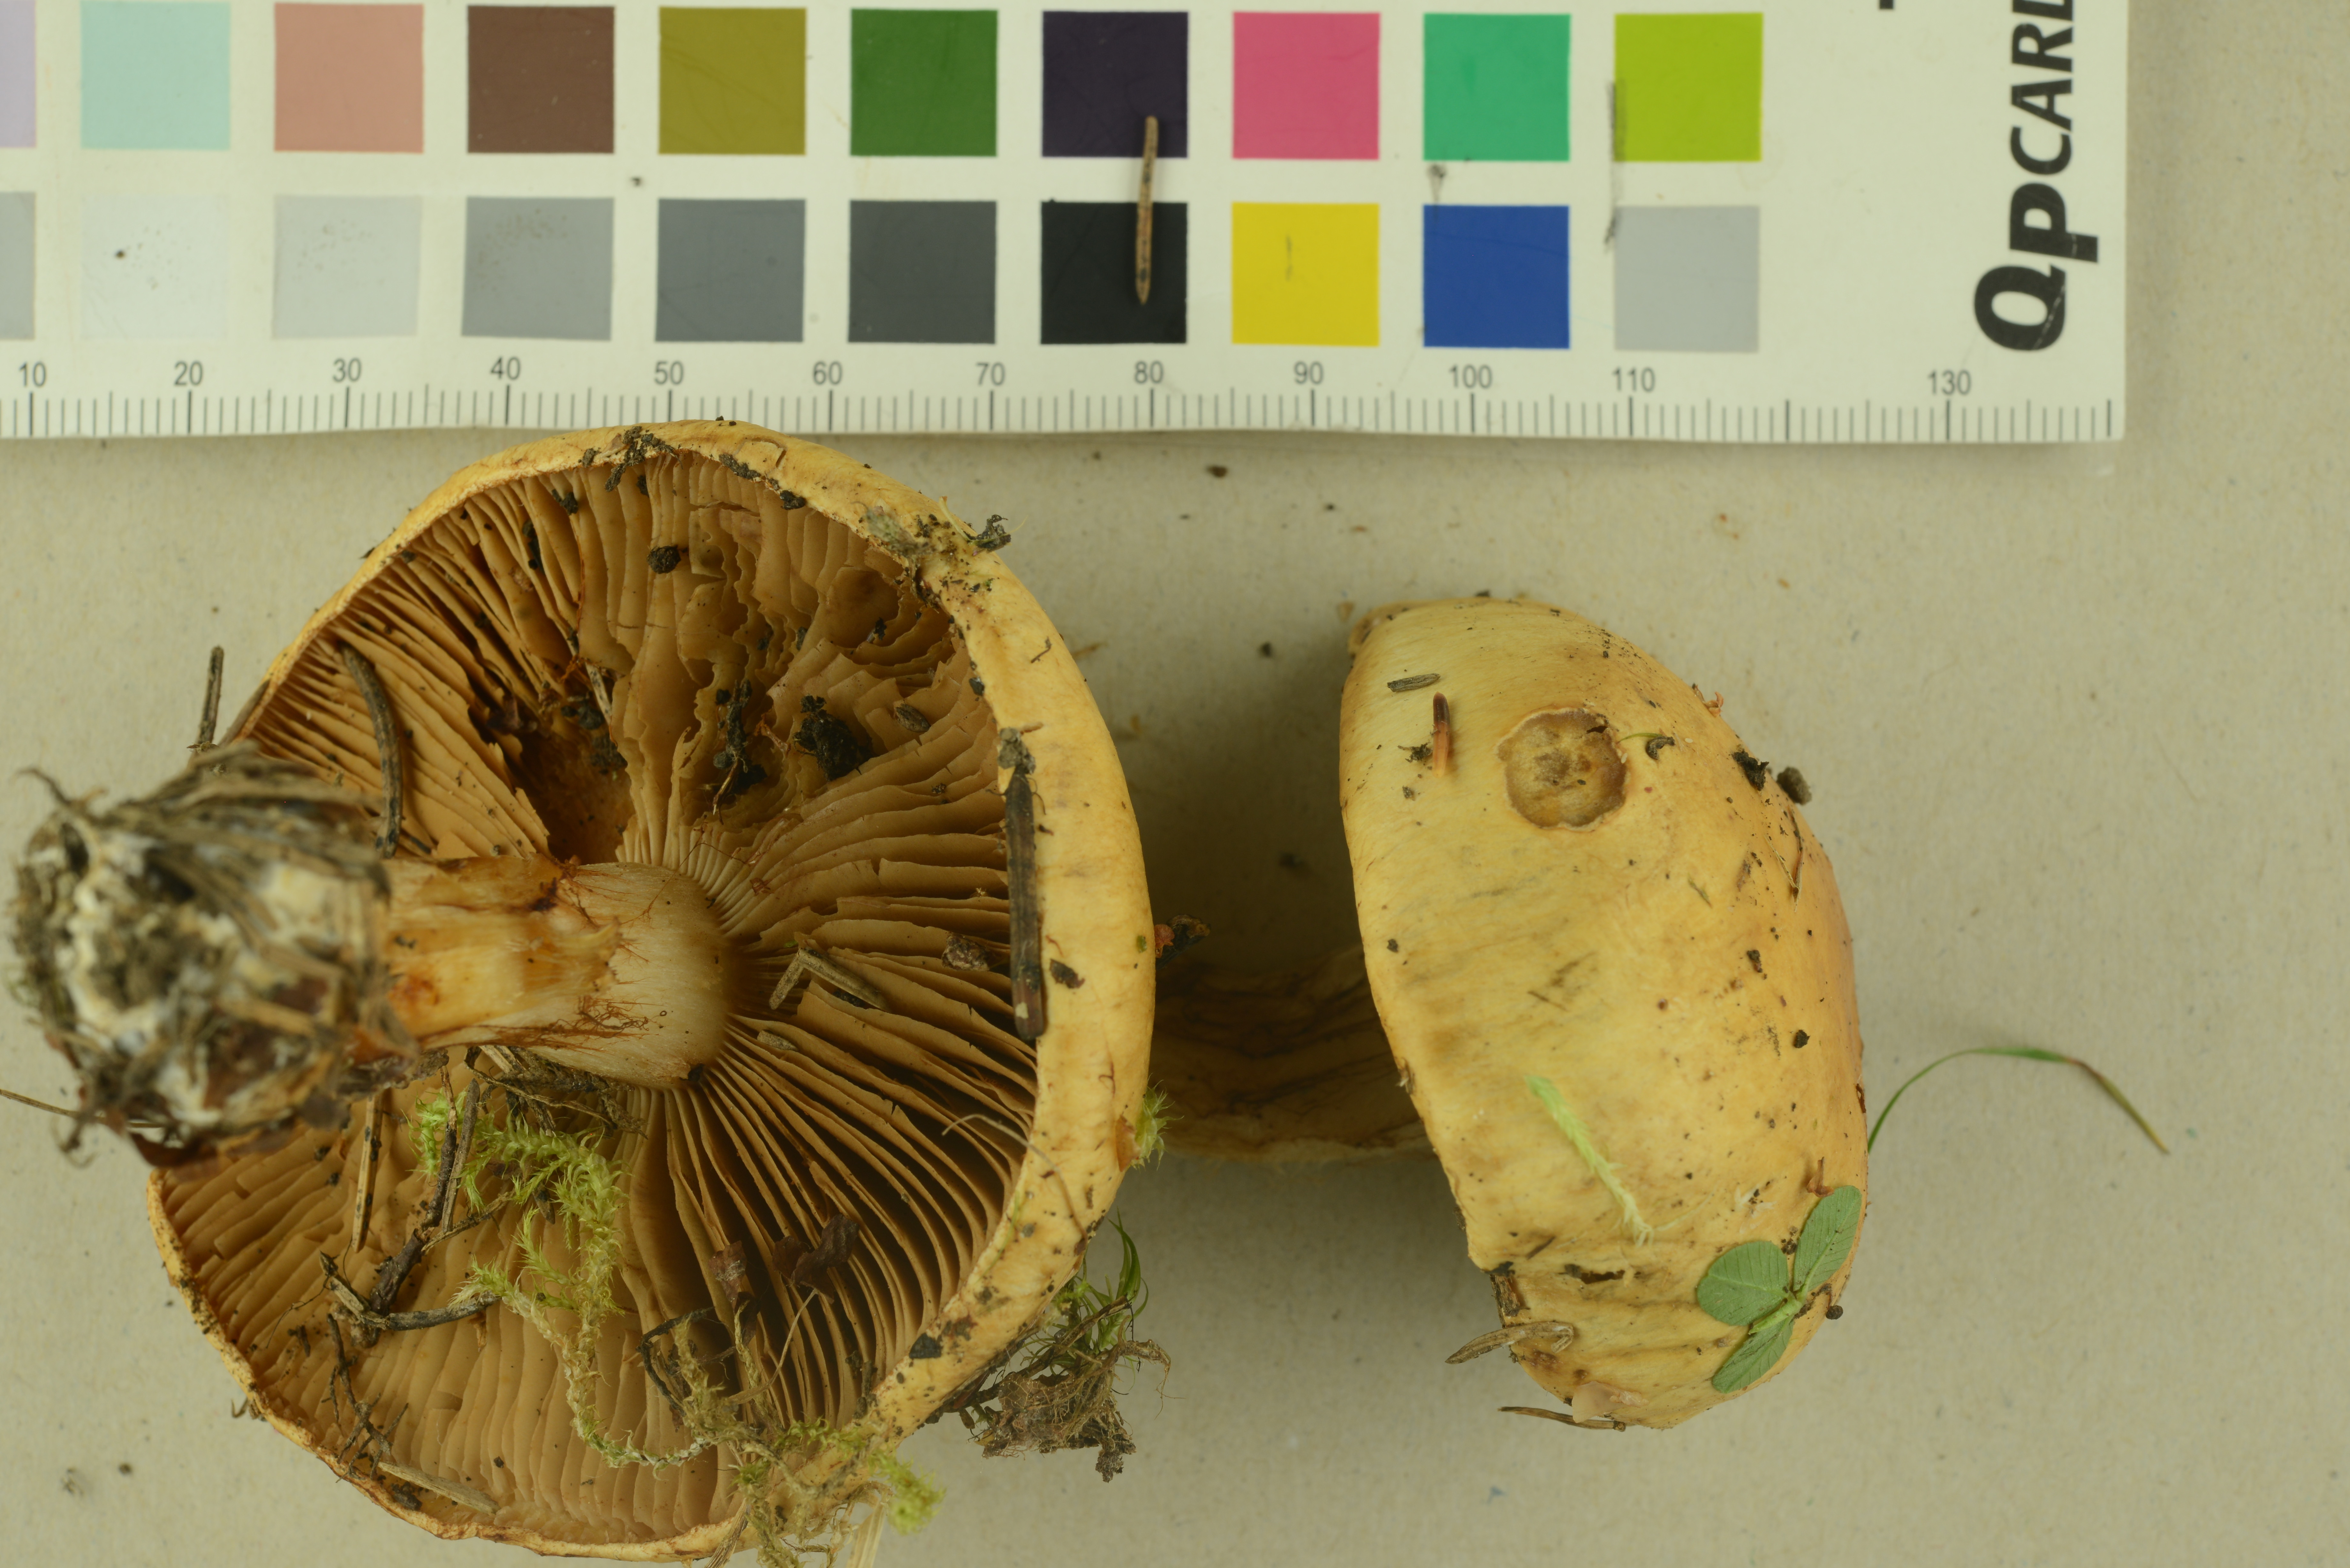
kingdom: Fungi
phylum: Basidiomycota
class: Agaricomycetes
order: Agaricales
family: Cortinariaceae
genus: Cortinarius
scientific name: Cortinarius kristinae
